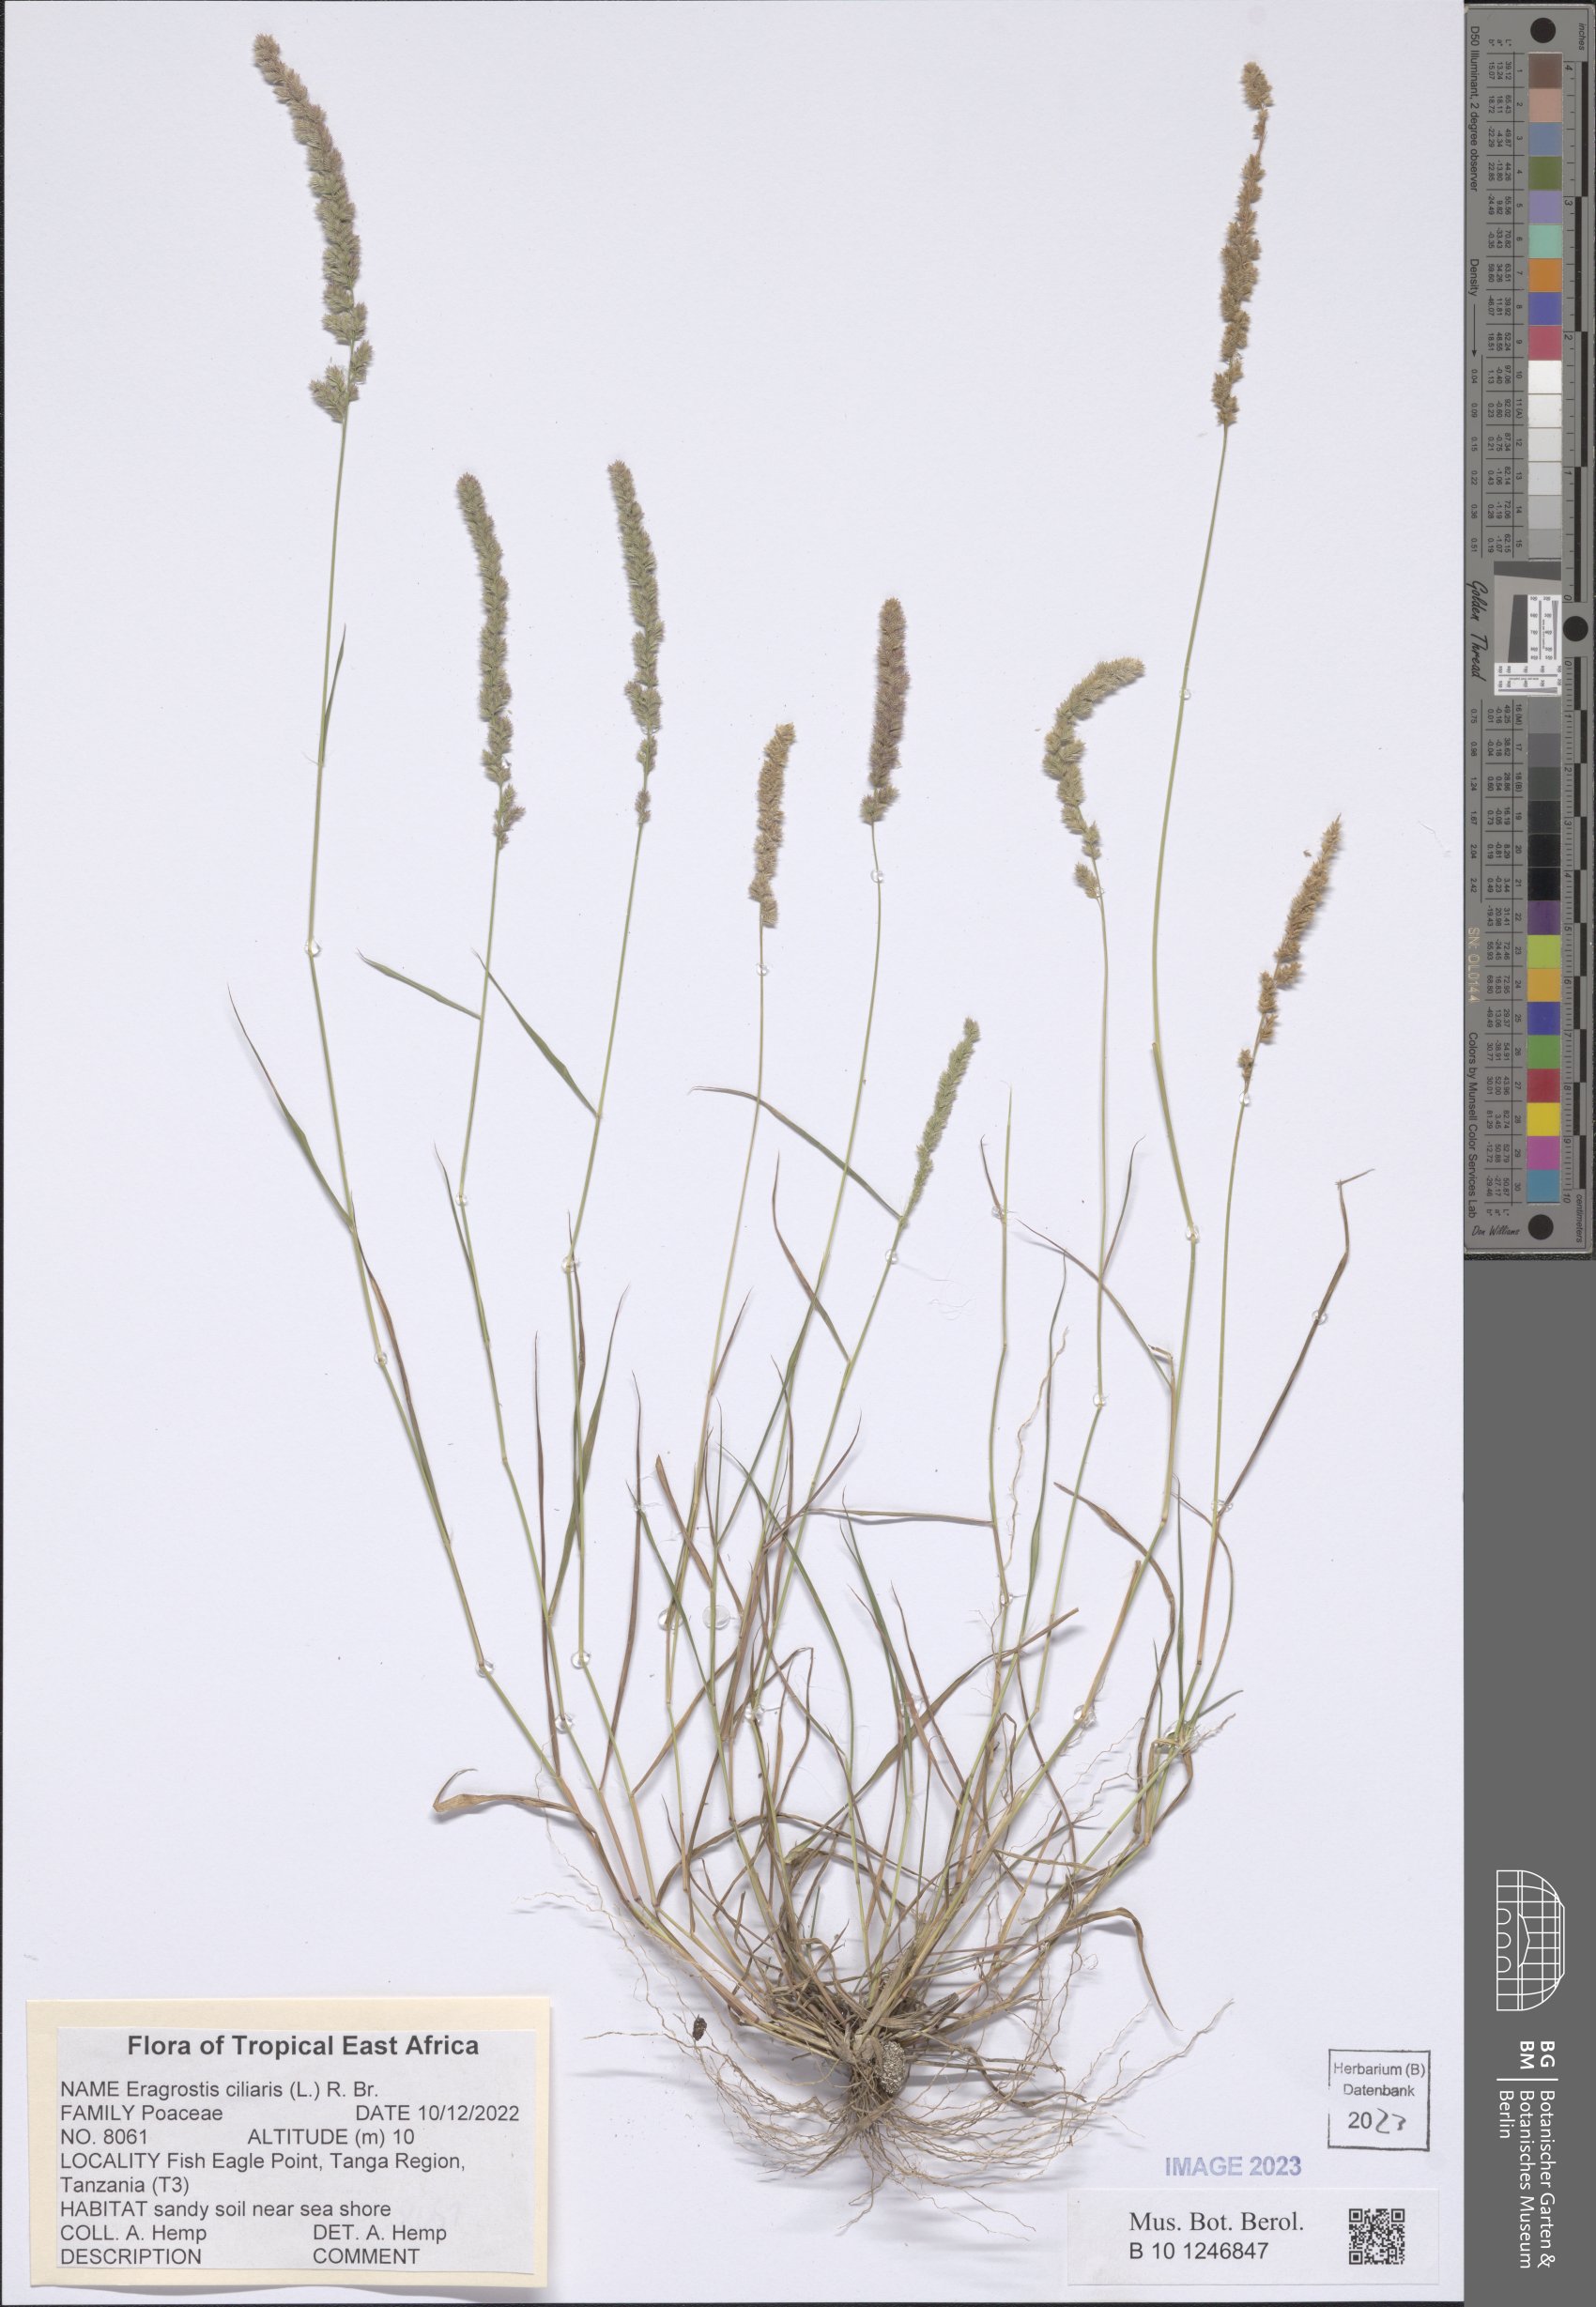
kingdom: Plantae
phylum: Tracheophyta
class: Liliopsida
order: Poales
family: Poaceae
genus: Eragrostis
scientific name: Eragrostis ciliaris
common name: Gophertail lovegrass
